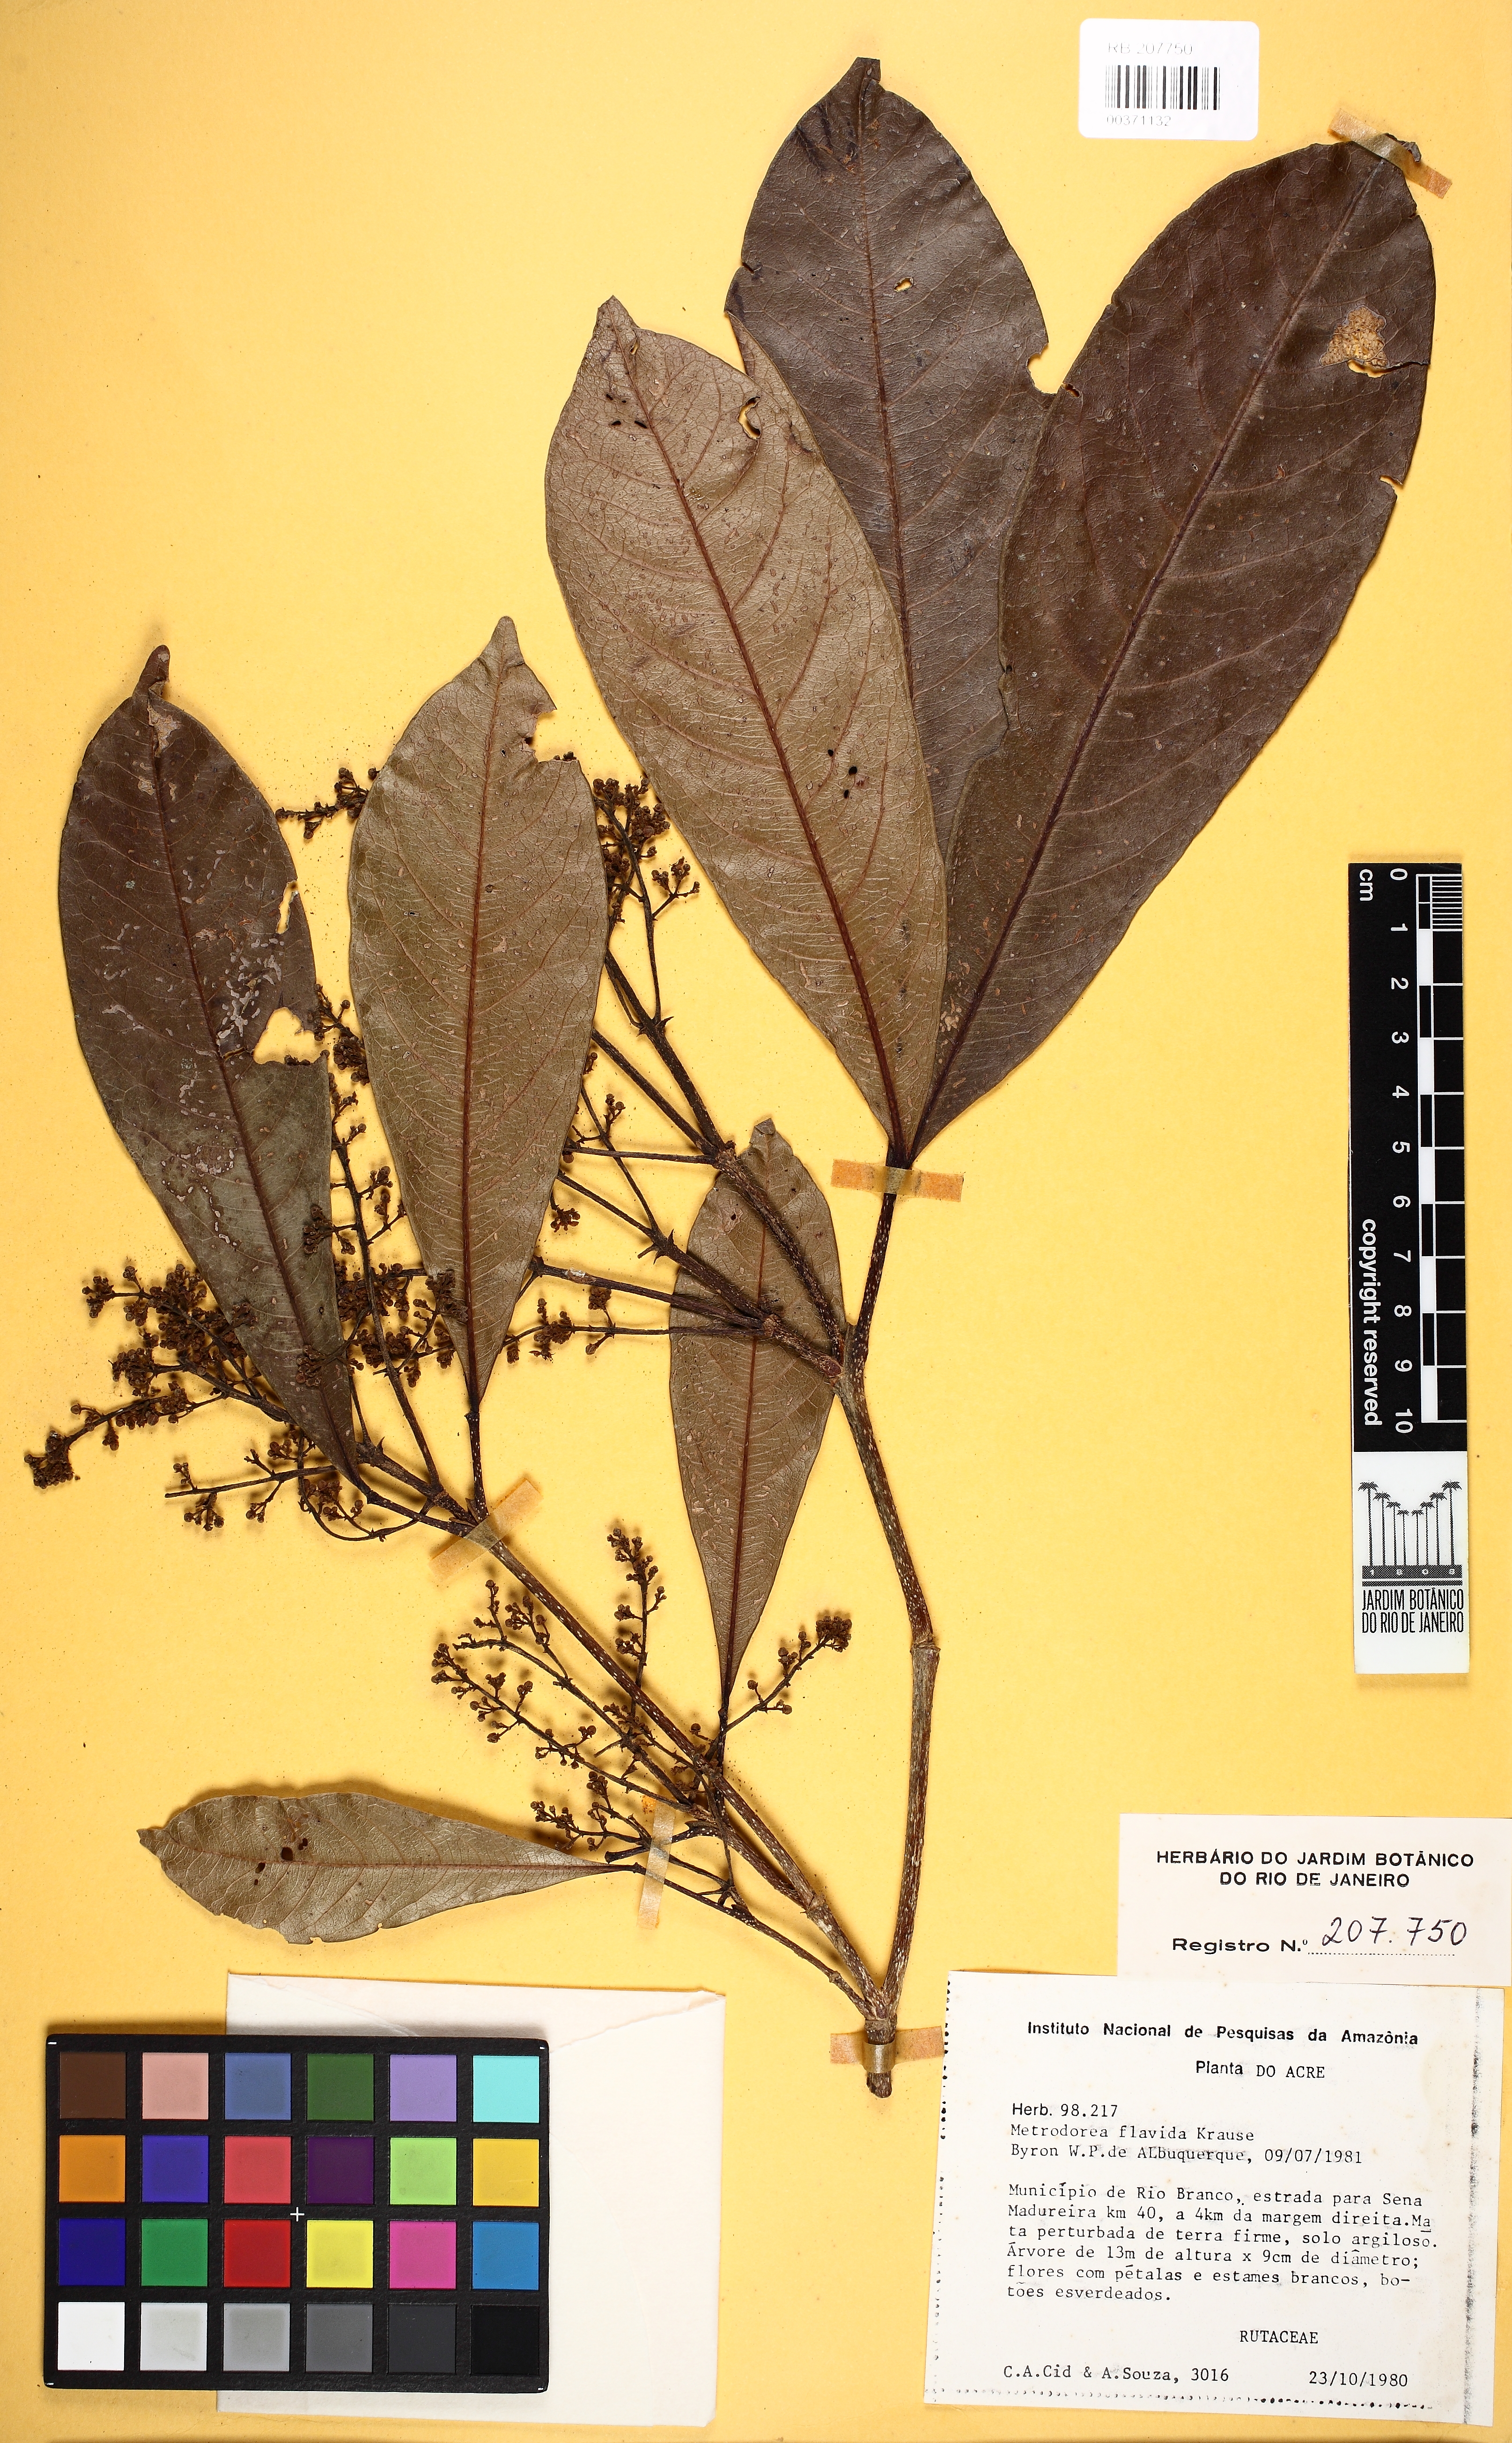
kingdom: Plantae
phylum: Tracheophyta
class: Magnoliopsida
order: Sapindales
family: Rutaceae
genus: Metrodorea
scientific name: Metrodorea flavida
